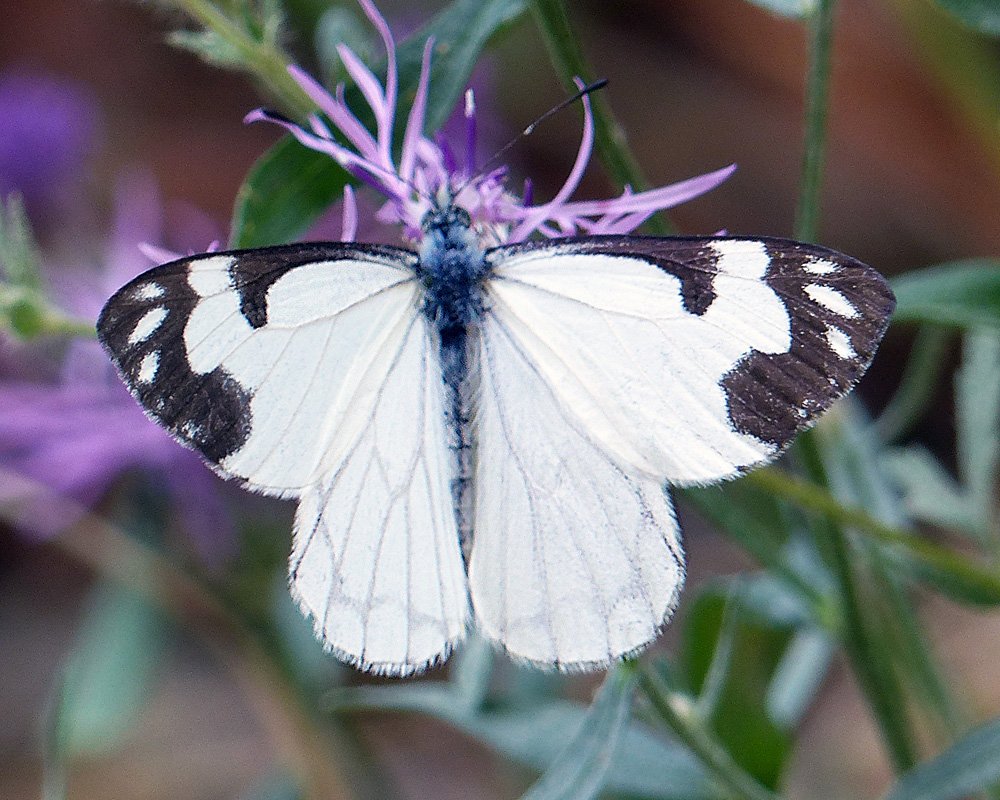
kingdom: Animalia
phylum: Arthropoda
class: Insecta
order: Lepidoptera
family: Pieridae
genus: Neophasia
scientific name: Neophasia menapia
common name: Pine White
